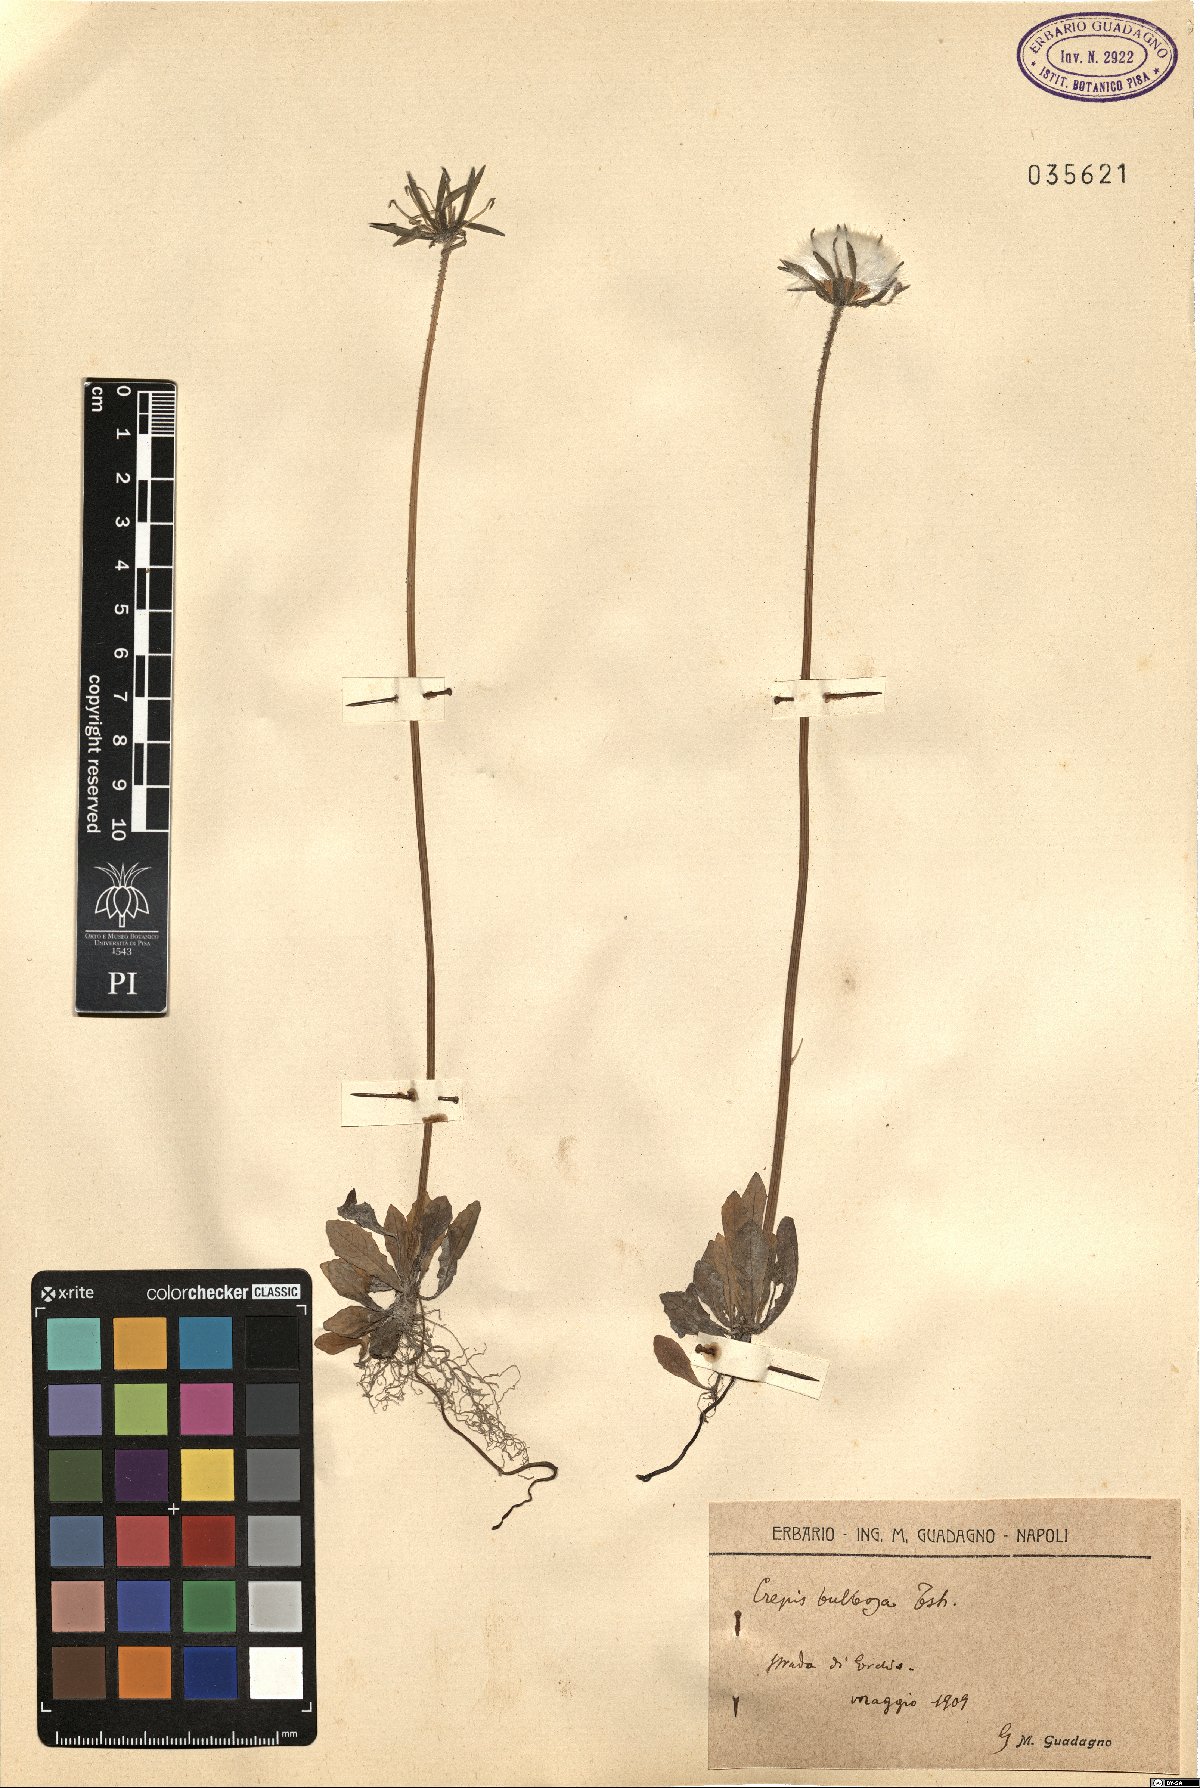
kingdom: Plantae
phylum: Tracheophyta
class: Magnoliopsida
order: Asterales
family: Asteraceae
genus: Aetheorhiza
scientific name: Aetheorhiza bulbosa
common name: Tuberous hawk's-beard
